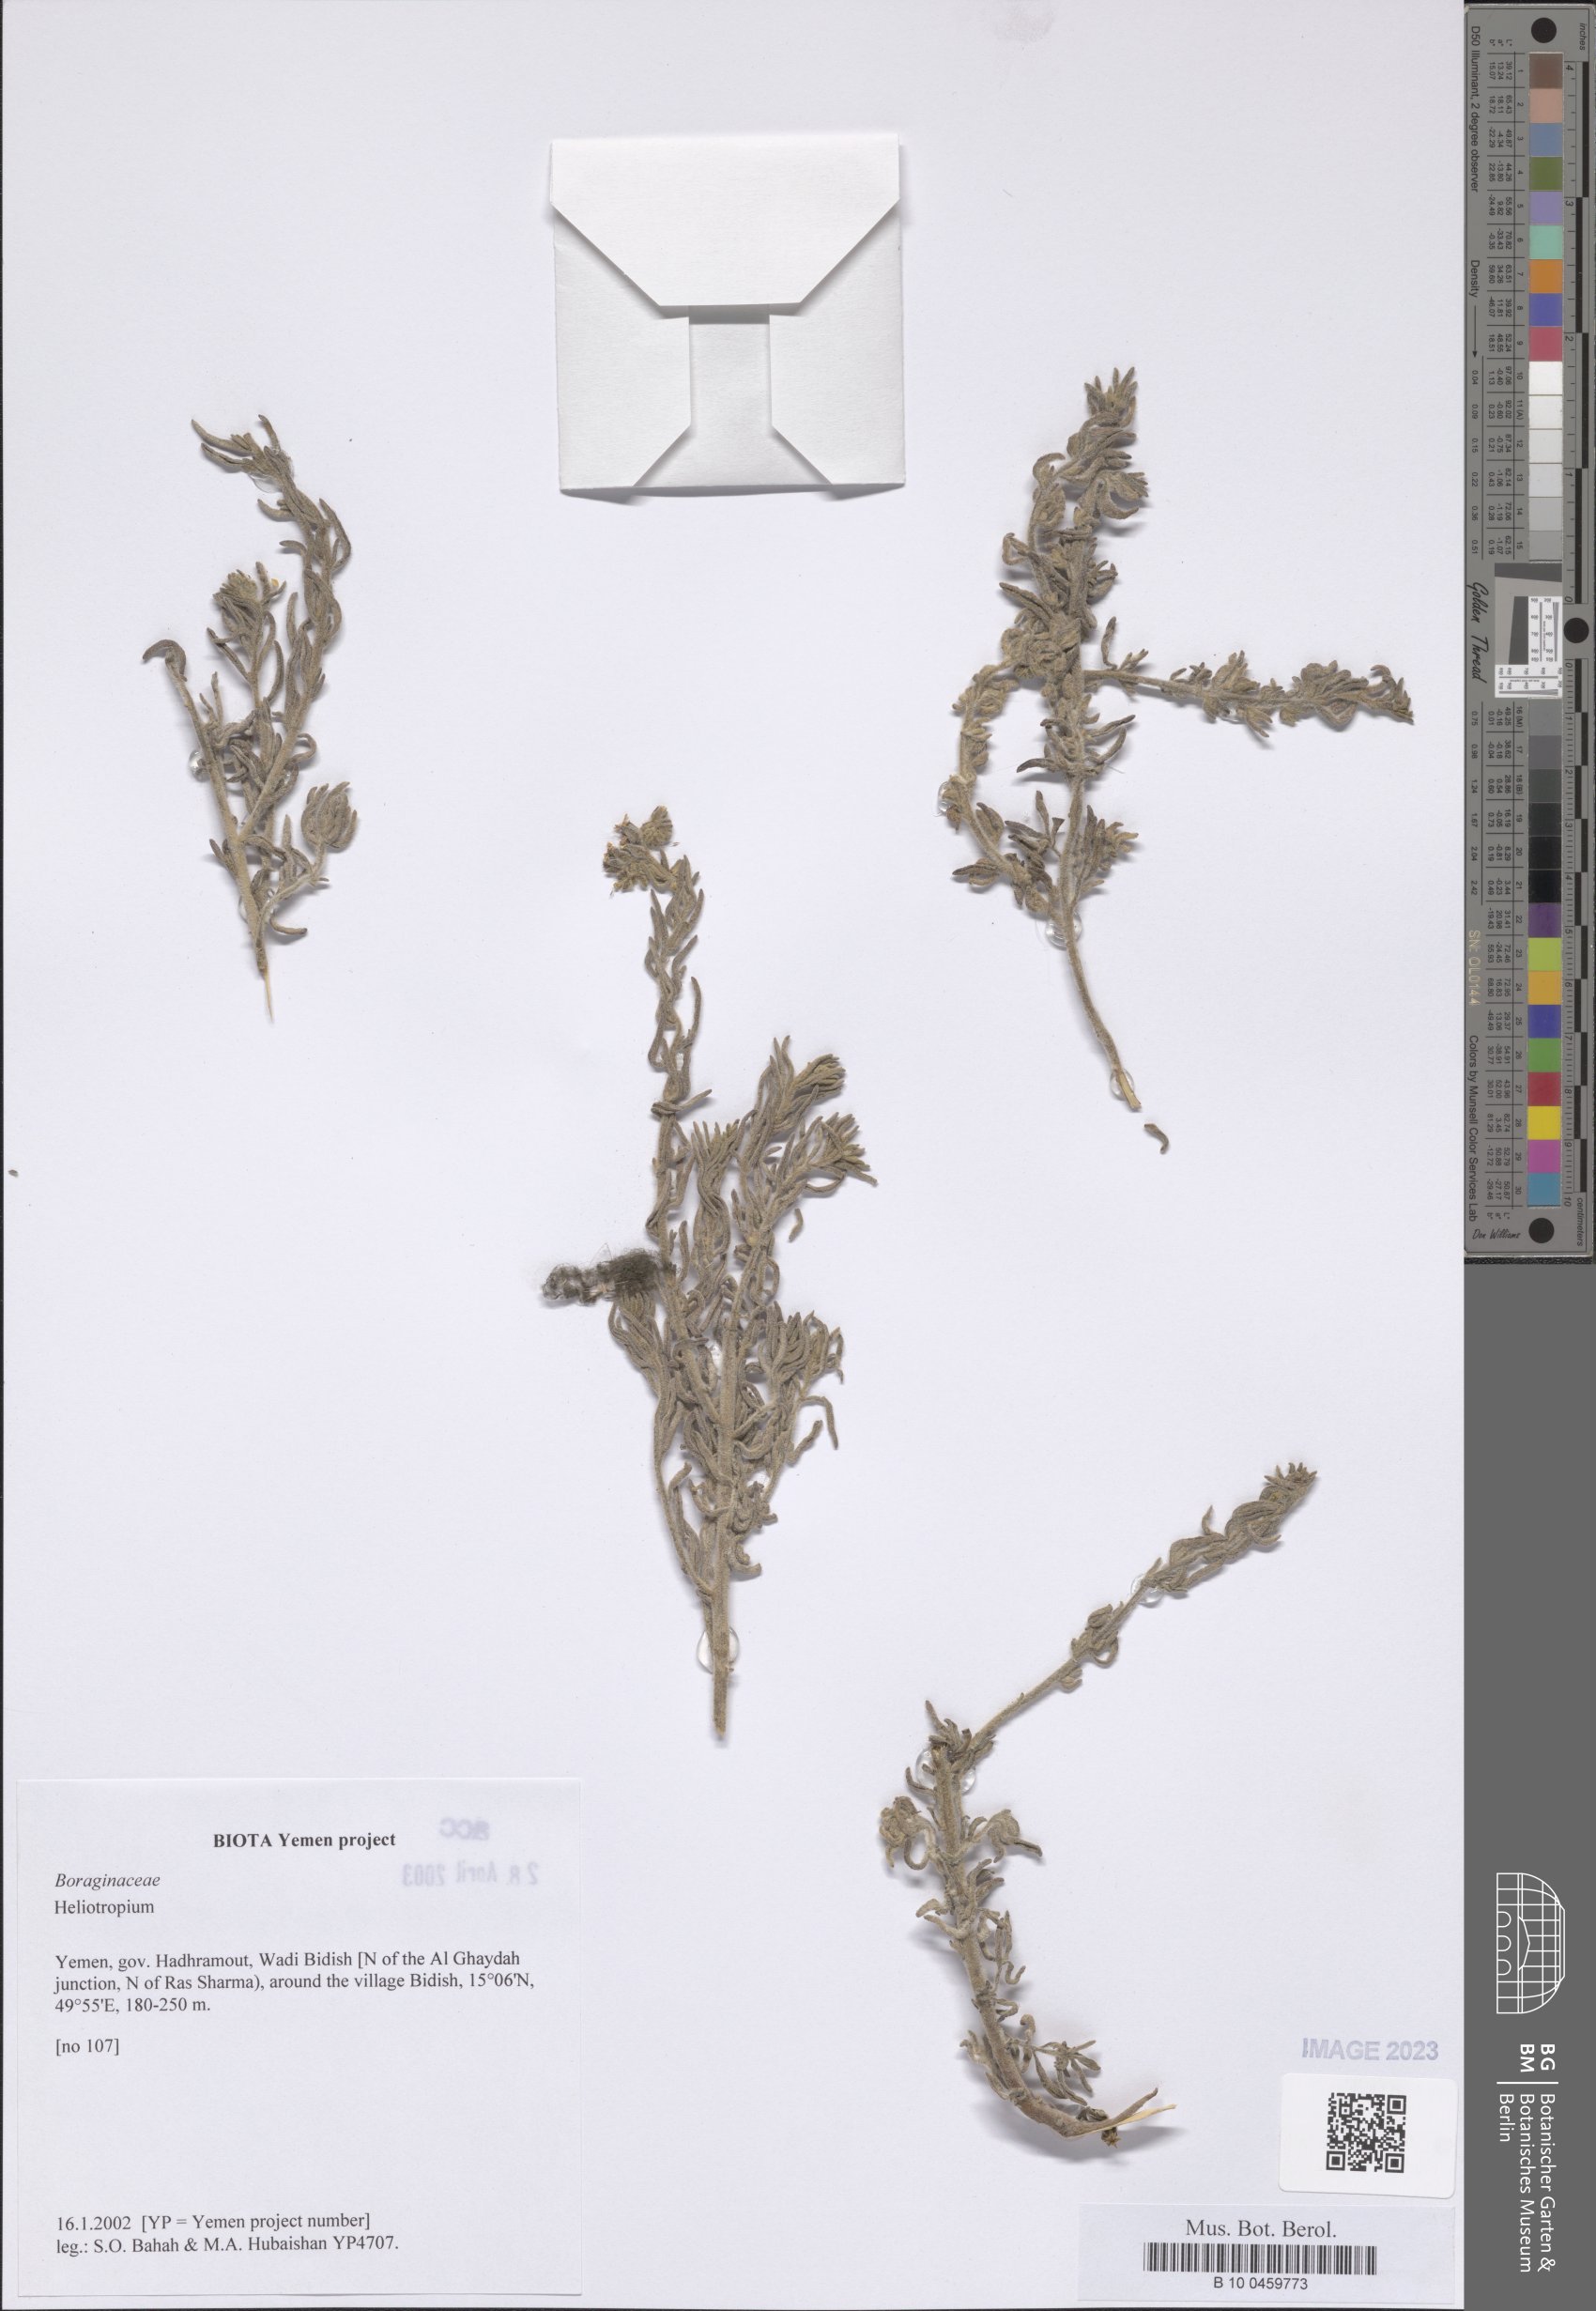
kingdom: Plantae
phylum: Tracheophyta
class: Magnoliopsida
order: Boraginales
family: Heliotropiaceae
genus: Heliotropium
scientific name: Heliotropium
